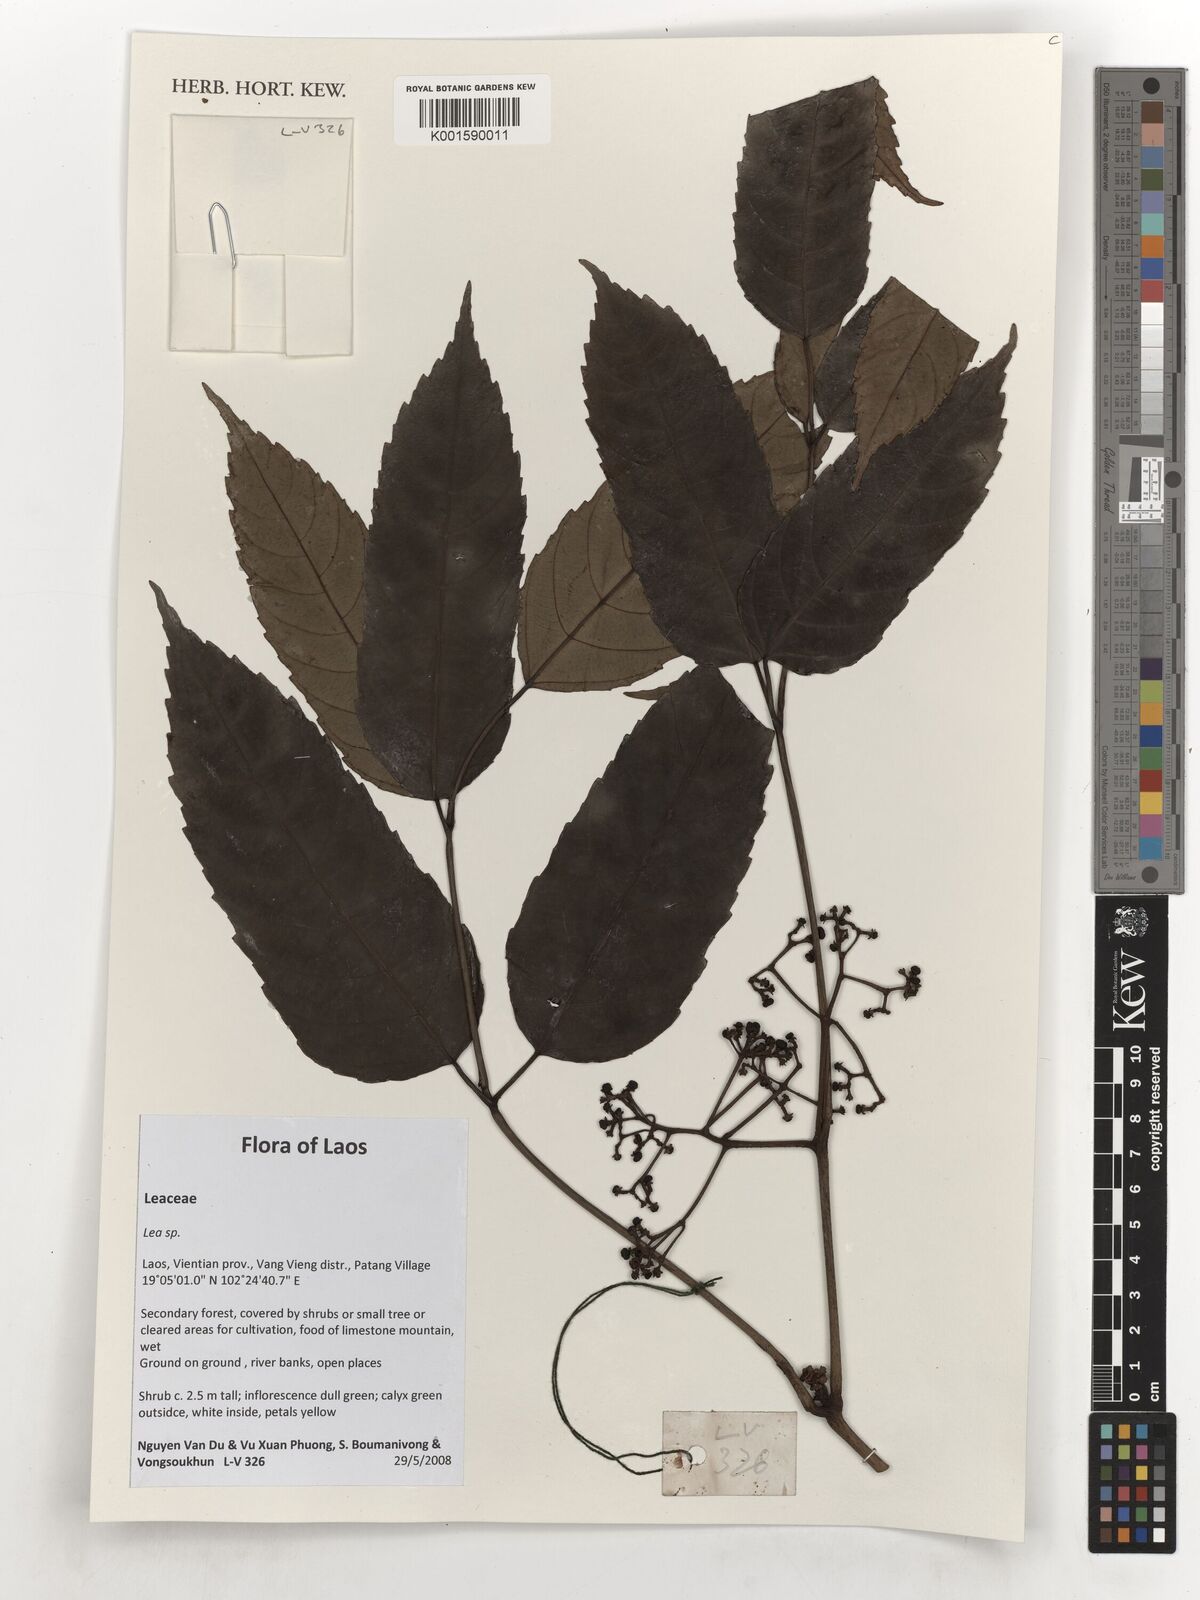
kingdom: Plantae
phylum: Tracheophyta
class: Magnoliopsida
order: Lamiales
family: Oleaceae
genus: Olea
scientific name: Olea
